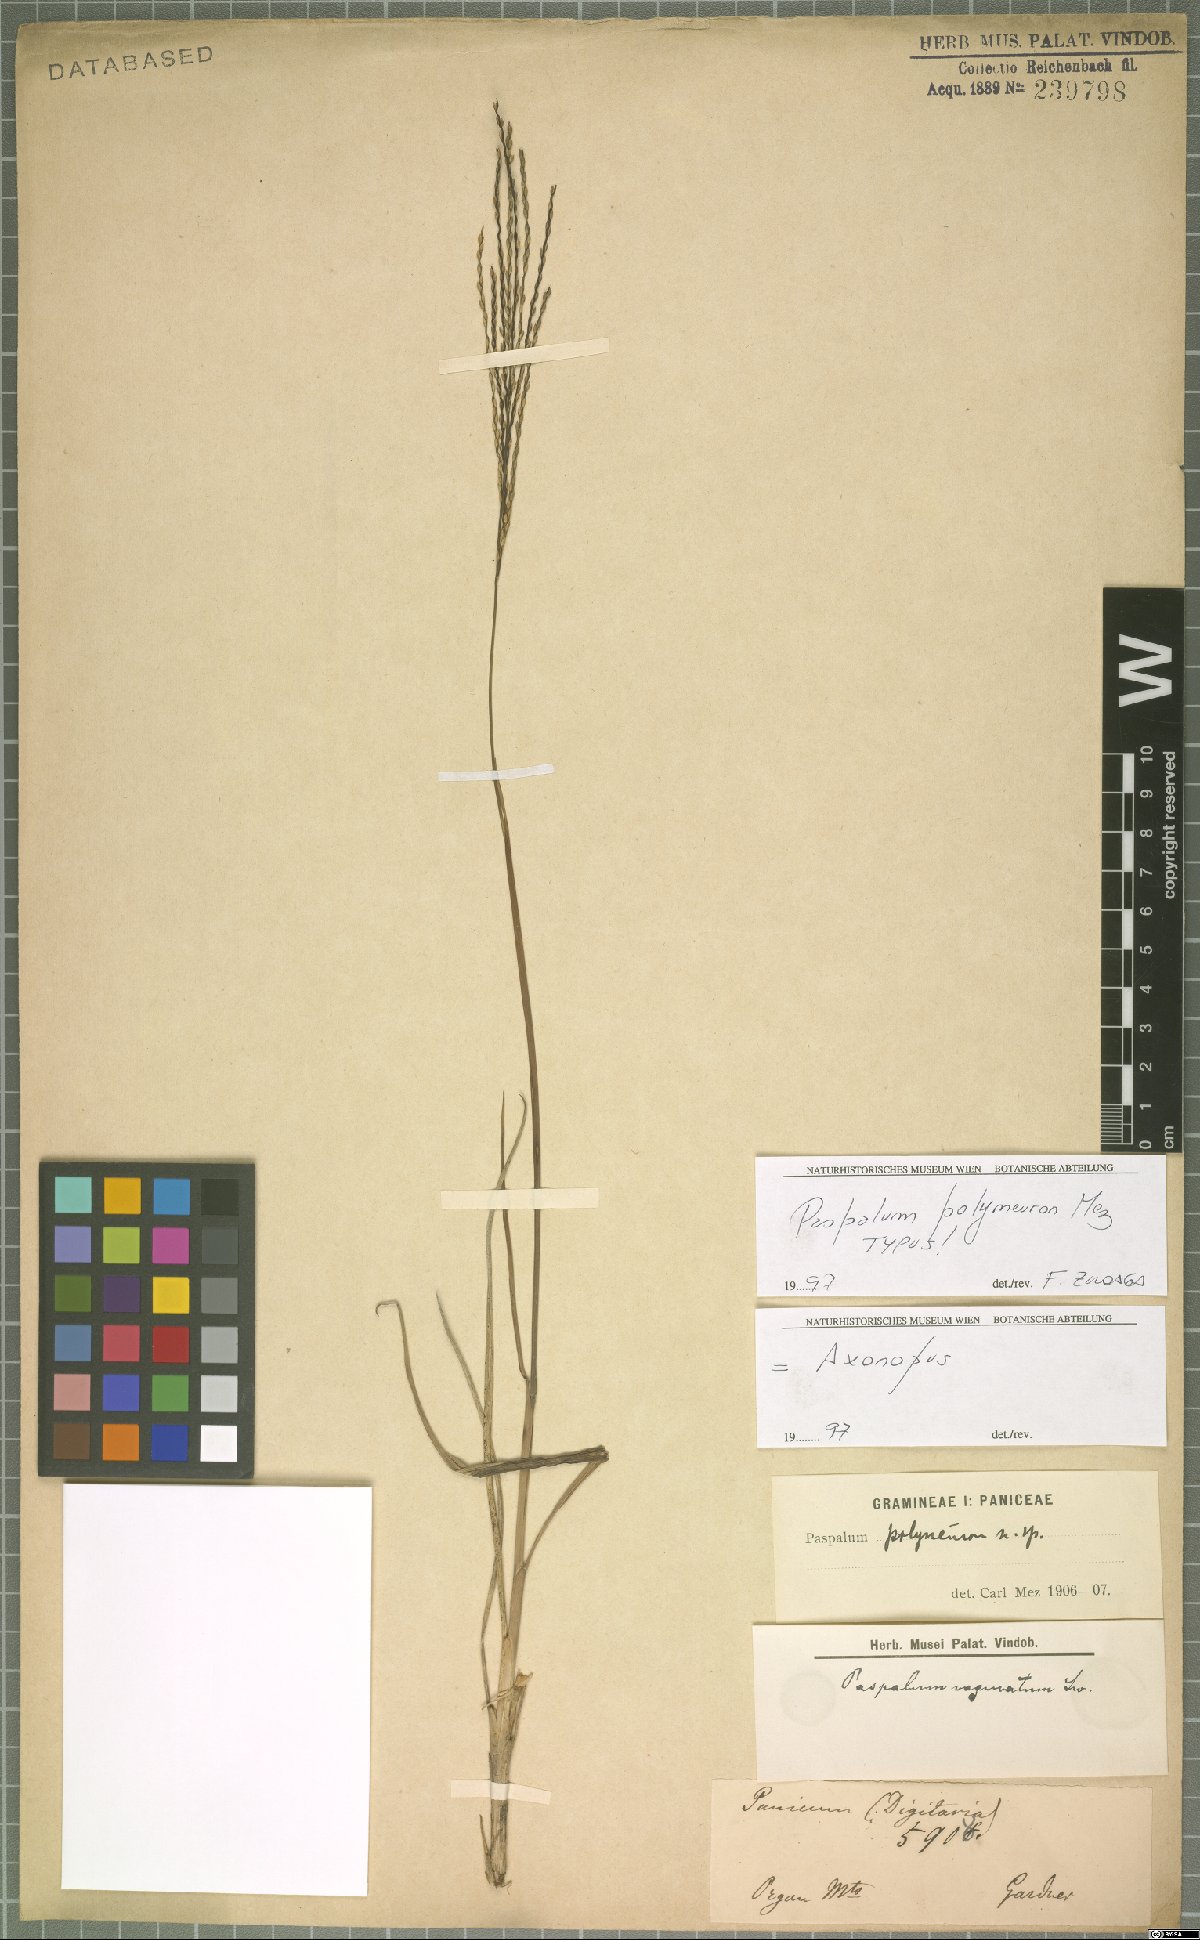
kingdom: Plantae
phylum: Tracheophyta
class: Liliopsida
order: Poales
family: Poaceae
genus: Axonopus
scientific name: Axonopus siccus
